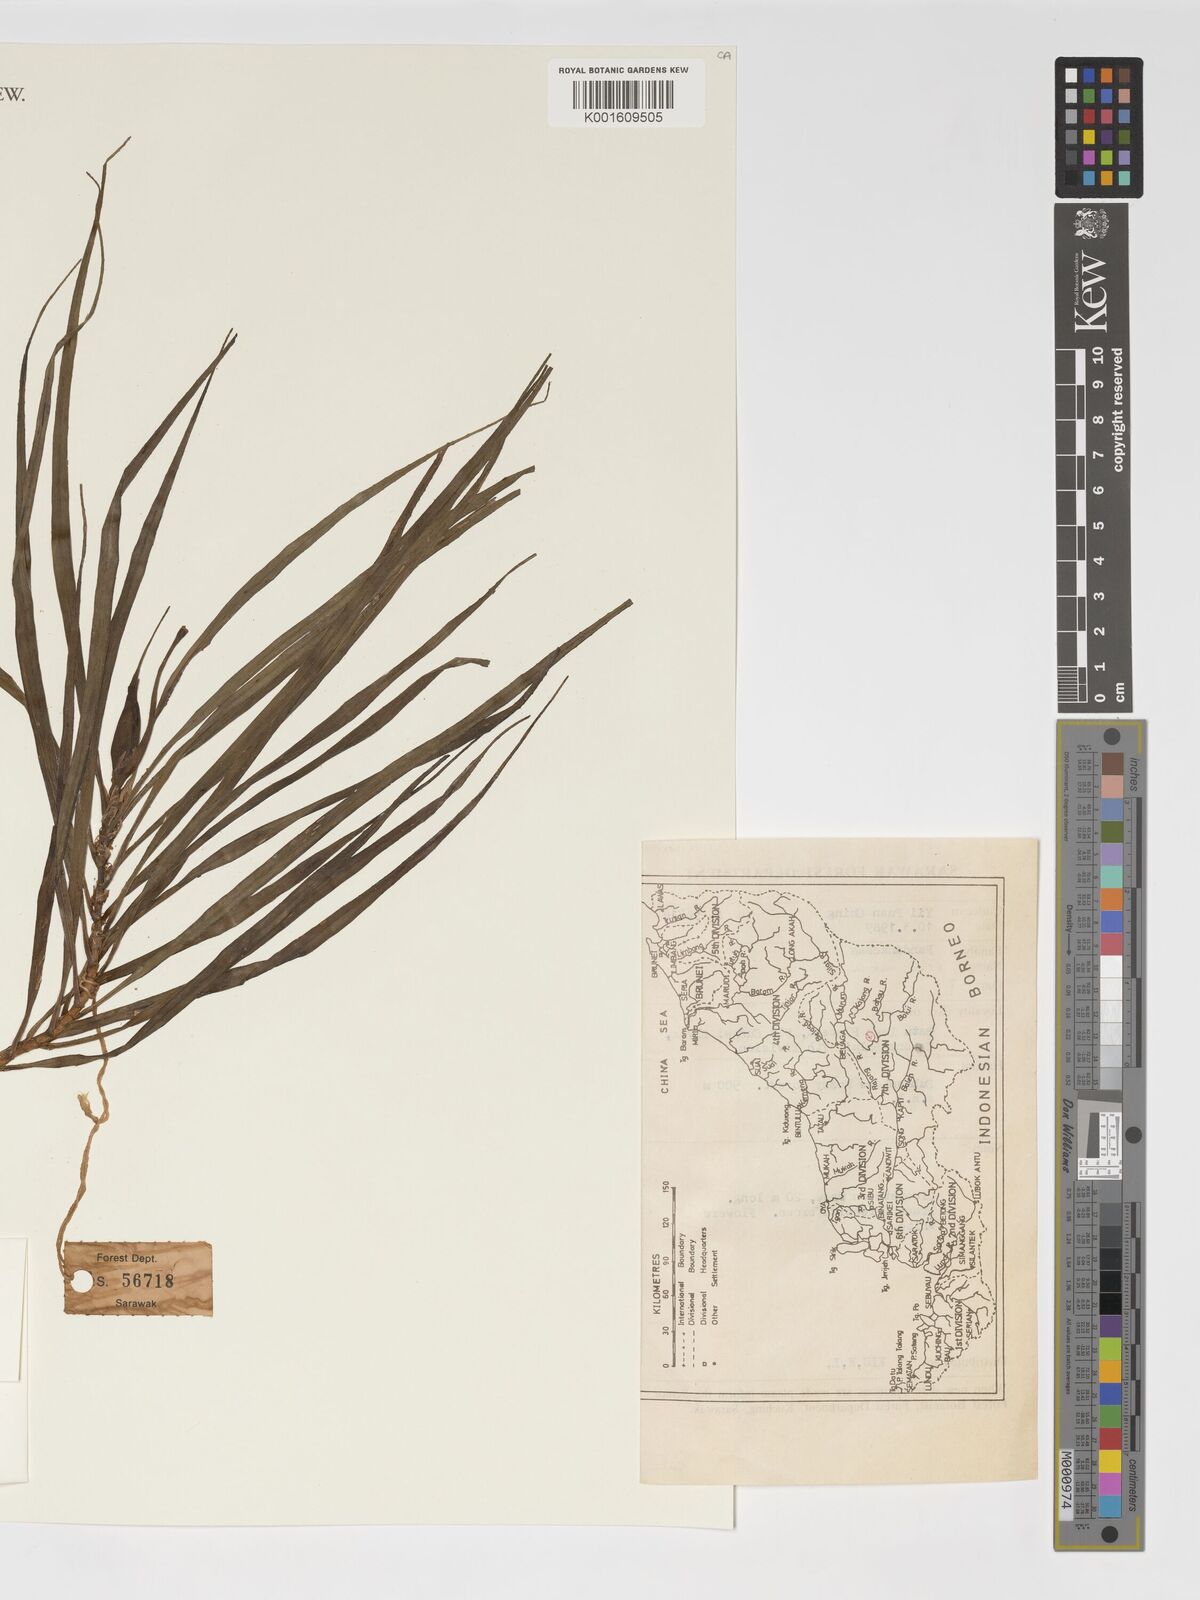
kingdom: Plantae
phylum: Tracheophyta
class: Liliopsida
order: Pandanales
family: Pandanaceae
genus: Freycinetia
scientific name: Freycinetia
